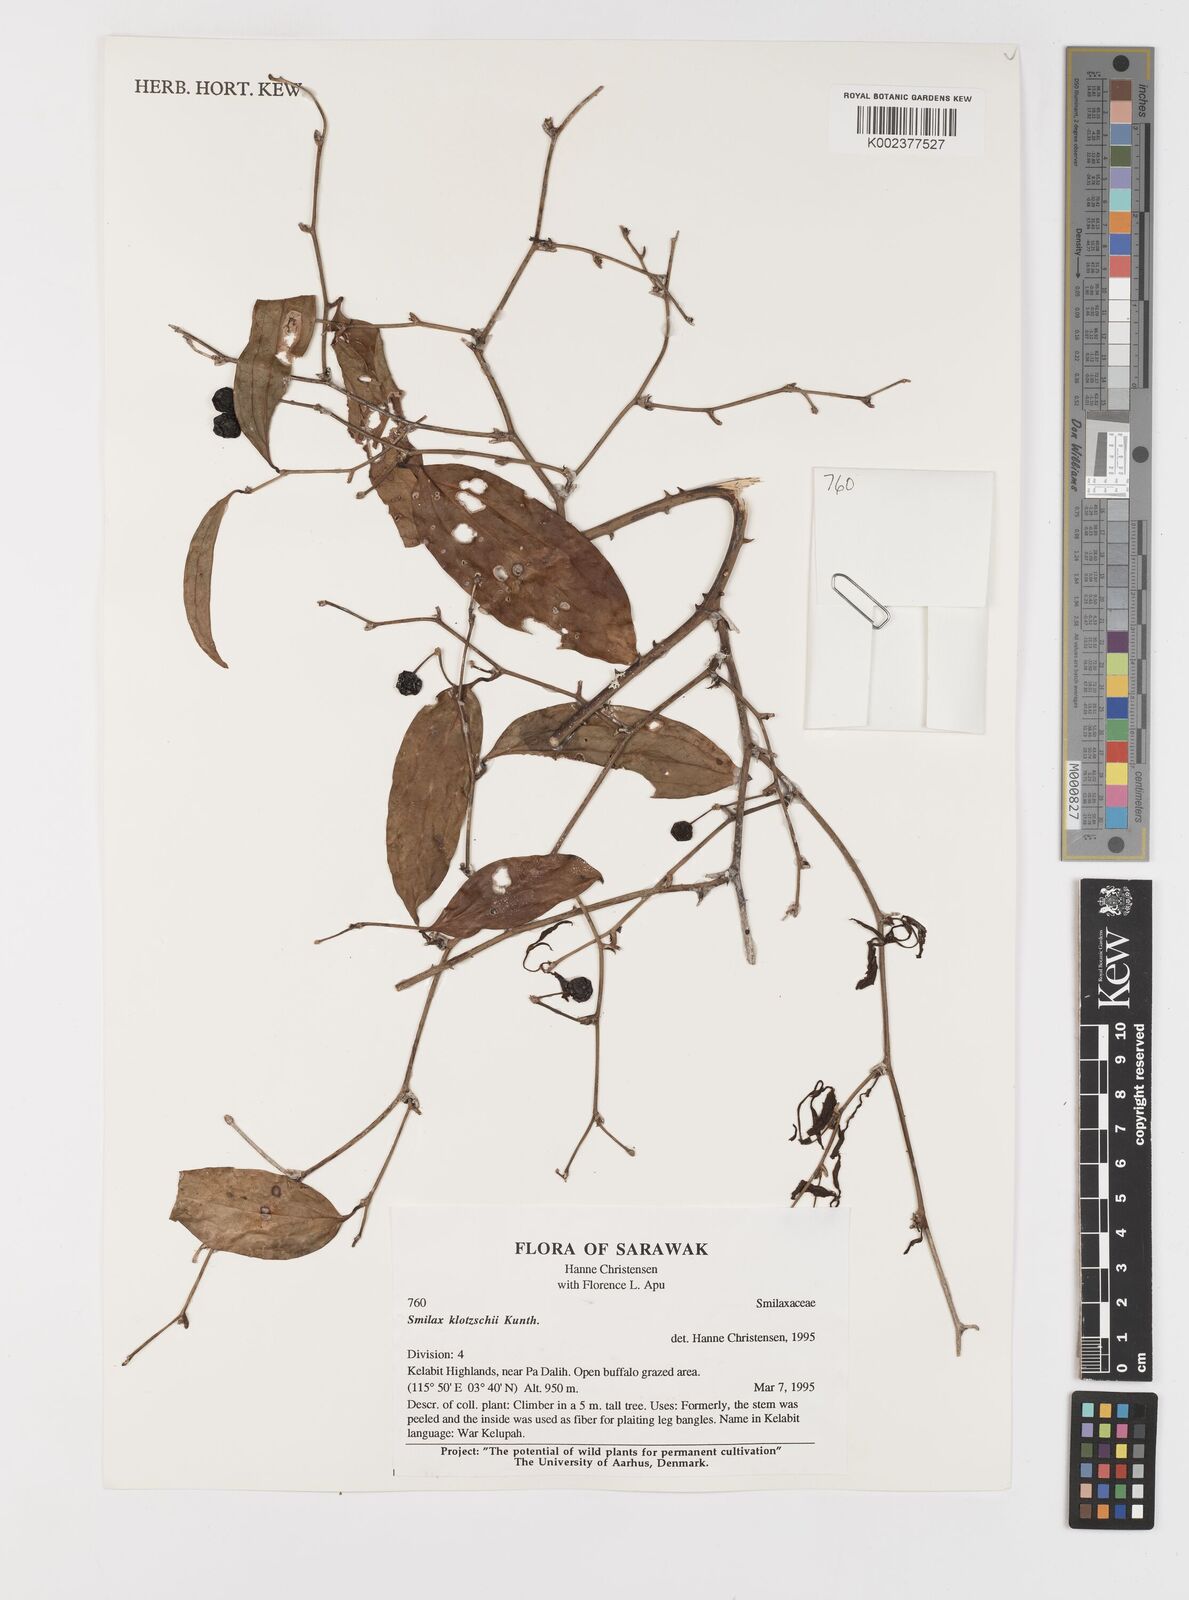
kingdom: Plantae
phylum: Tracheophyta
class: Liliopsida
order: Liliales
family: Smilacaceae
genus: Smilax
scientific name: Smilax klotzschii
